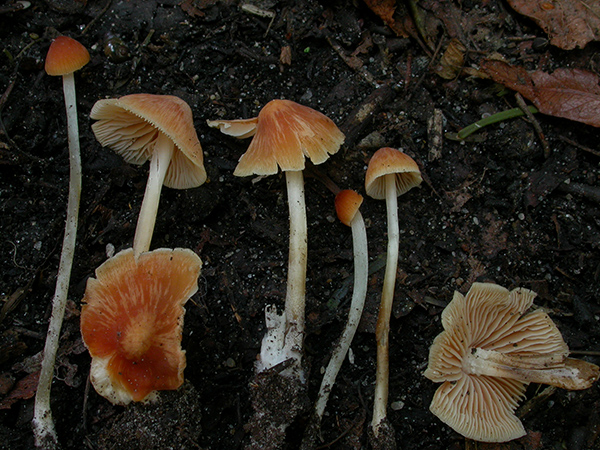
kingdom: Fungi
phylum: Basidiomycota
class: Agaricomycetes
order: Agaricales
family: Mycenaceae
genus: Atheniella
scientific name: Atheniella leptophylla
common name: abrikos-huesvamp
